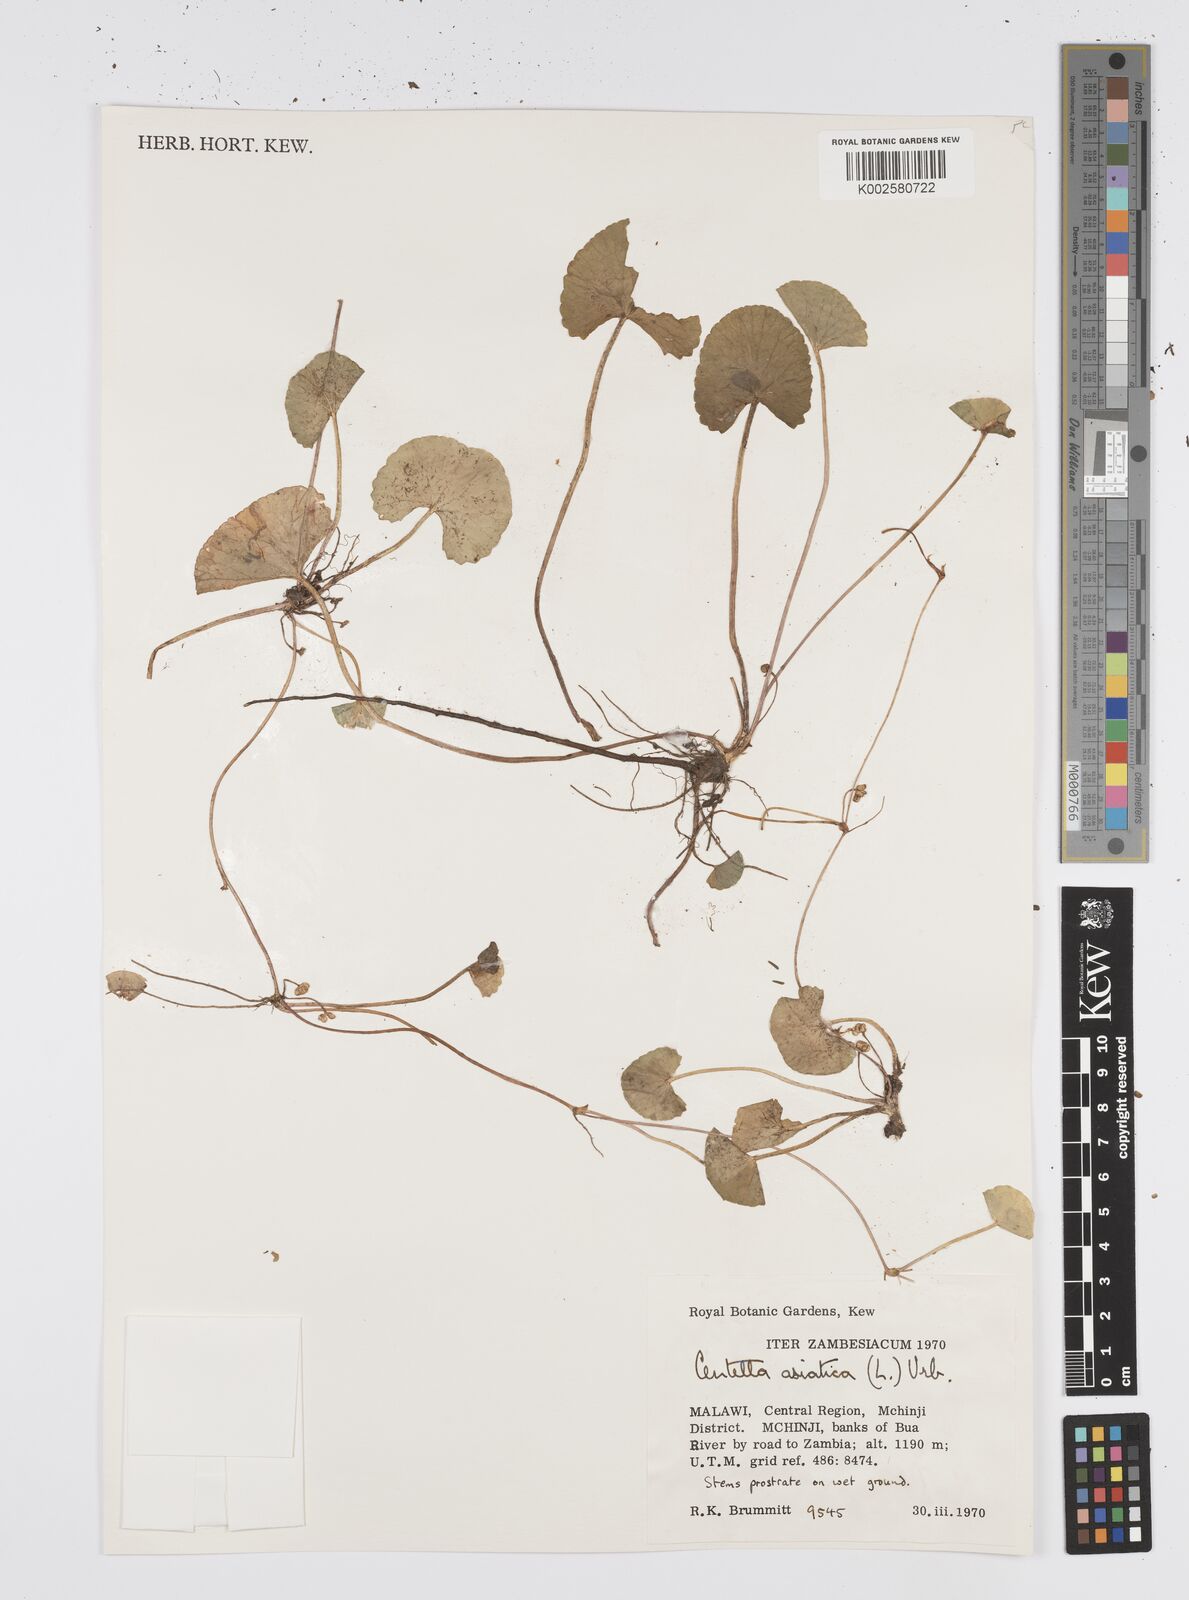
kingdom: Plantae
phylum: Tracheophyta
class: Magnoliopsida
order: Apiales
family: Apiaceae
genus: Centella
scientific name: Centella asiatica
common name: Spadeleaf
